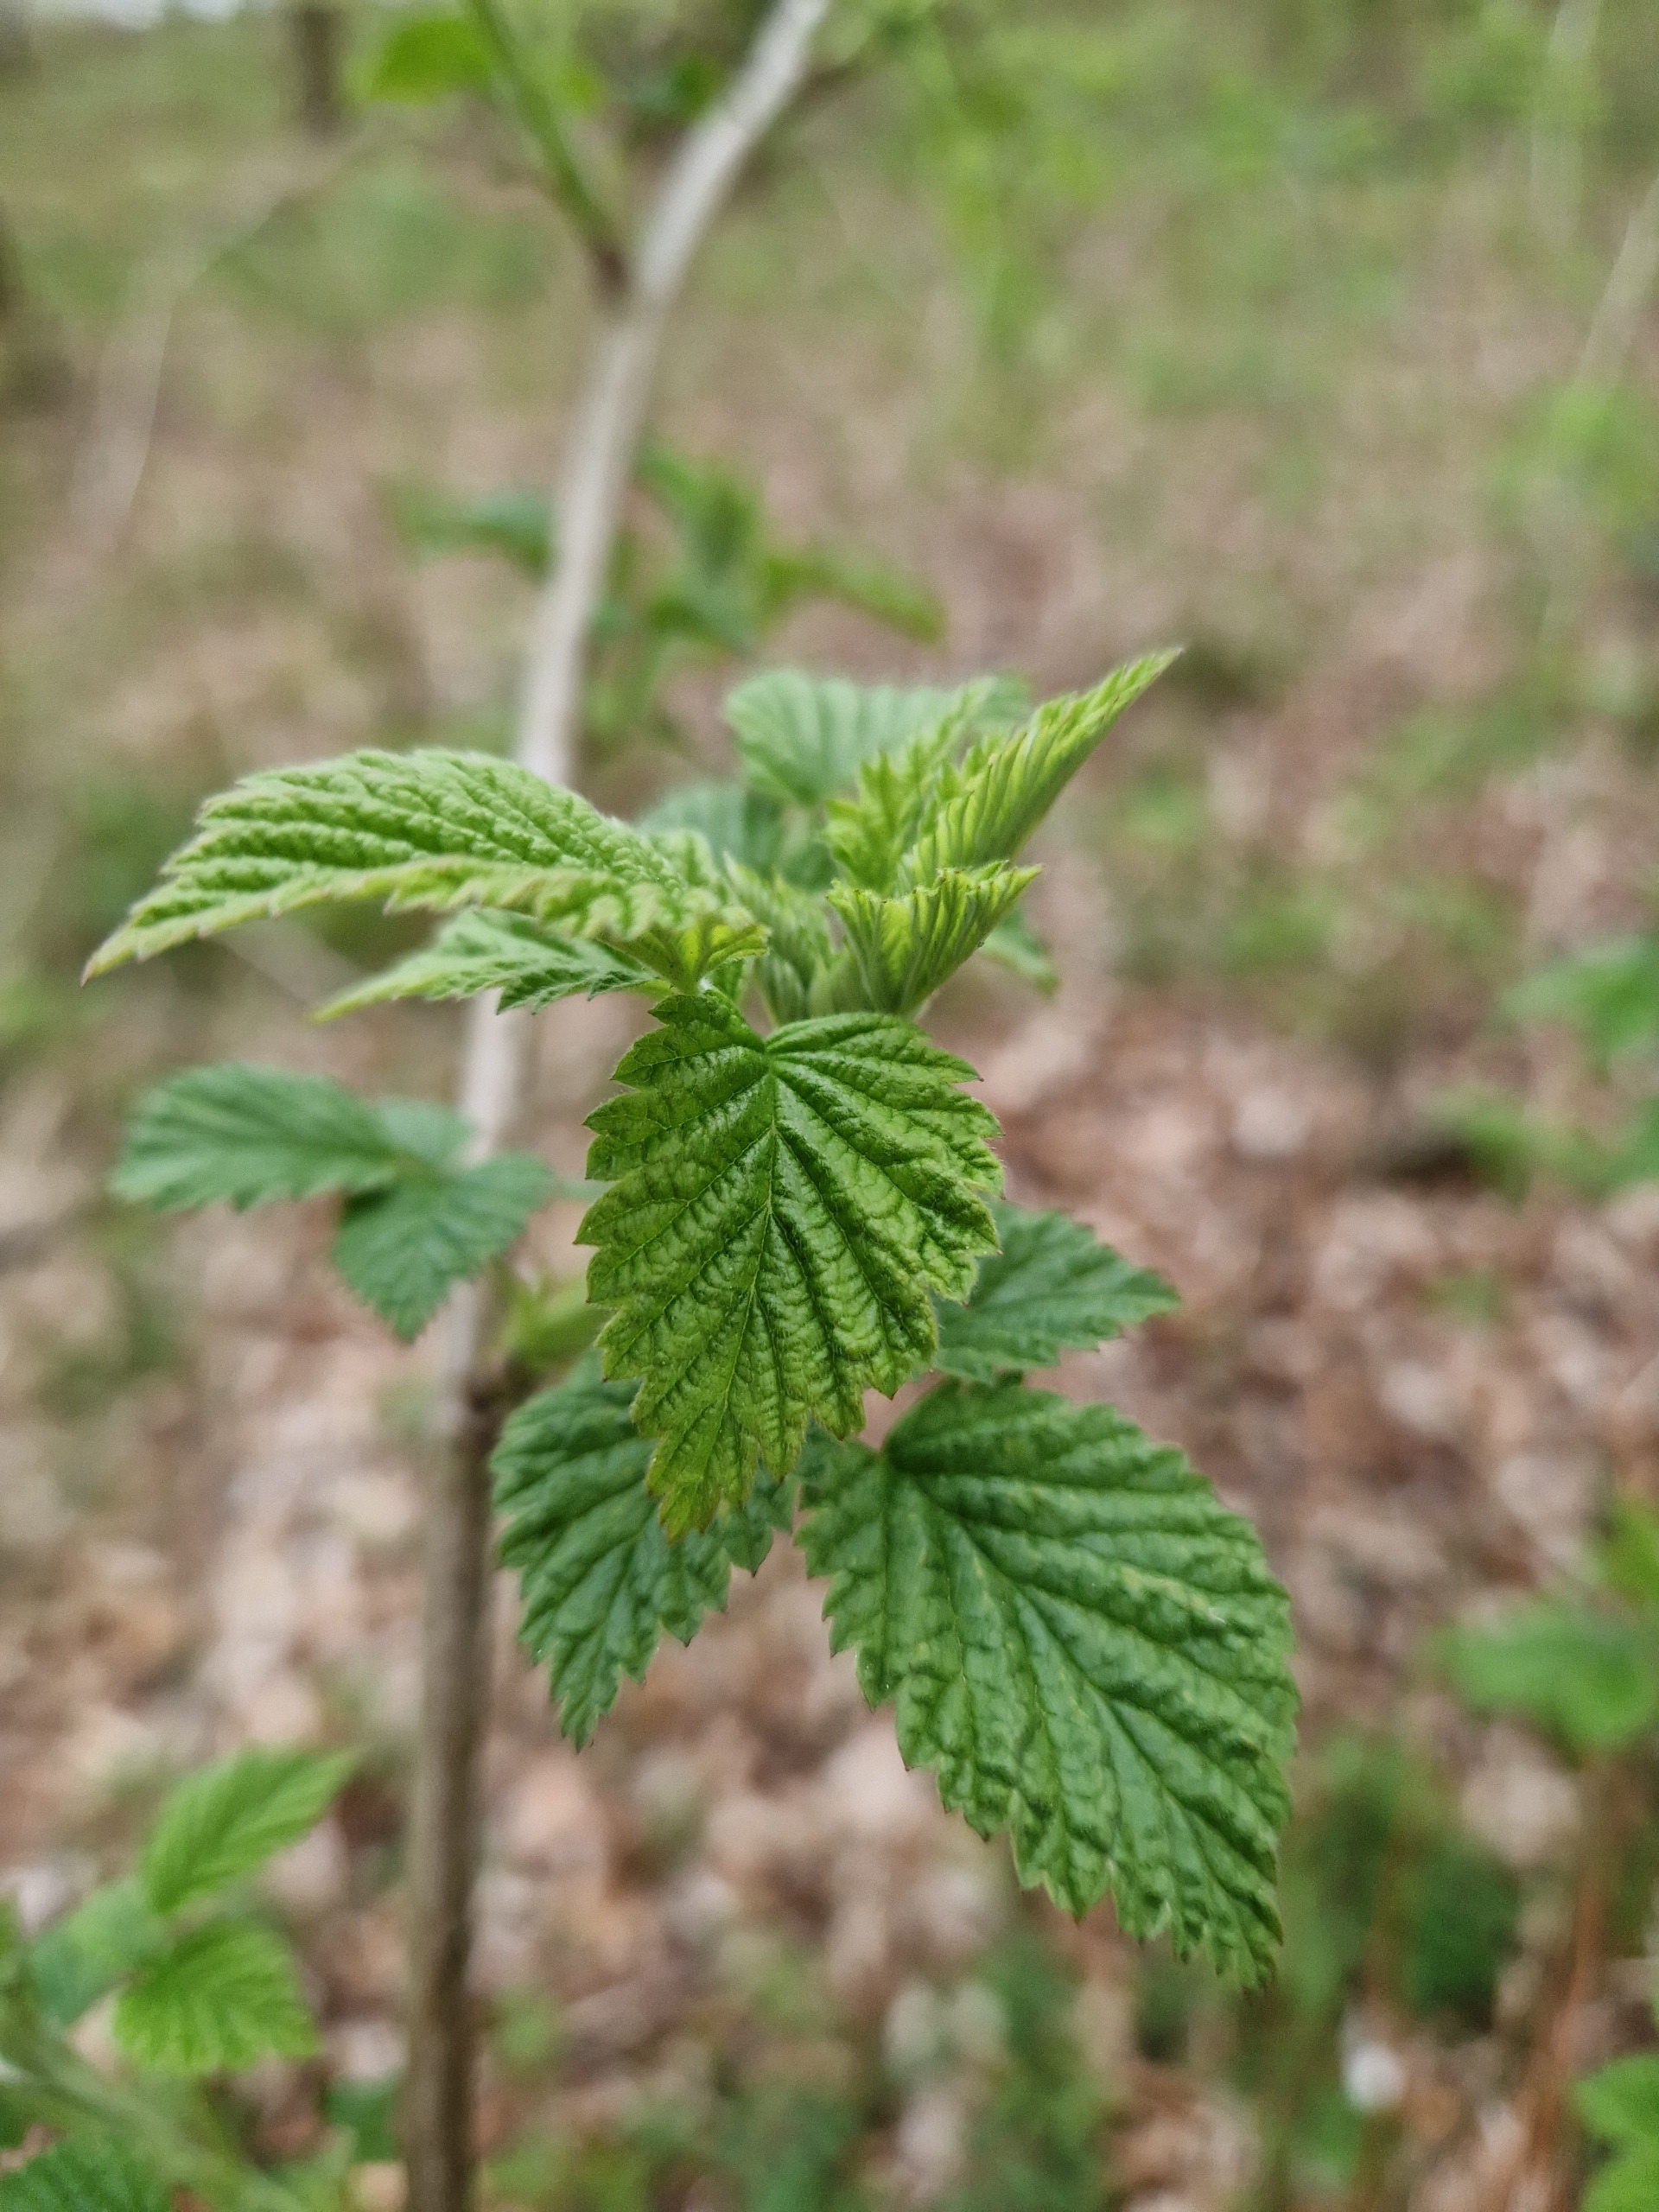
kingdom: Plantae
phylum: Tracheophyta
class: Magnoliopsida
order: Rosales
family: Rosaceae
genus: Rubus
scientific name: Rubus idaeus
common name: Hindbær
